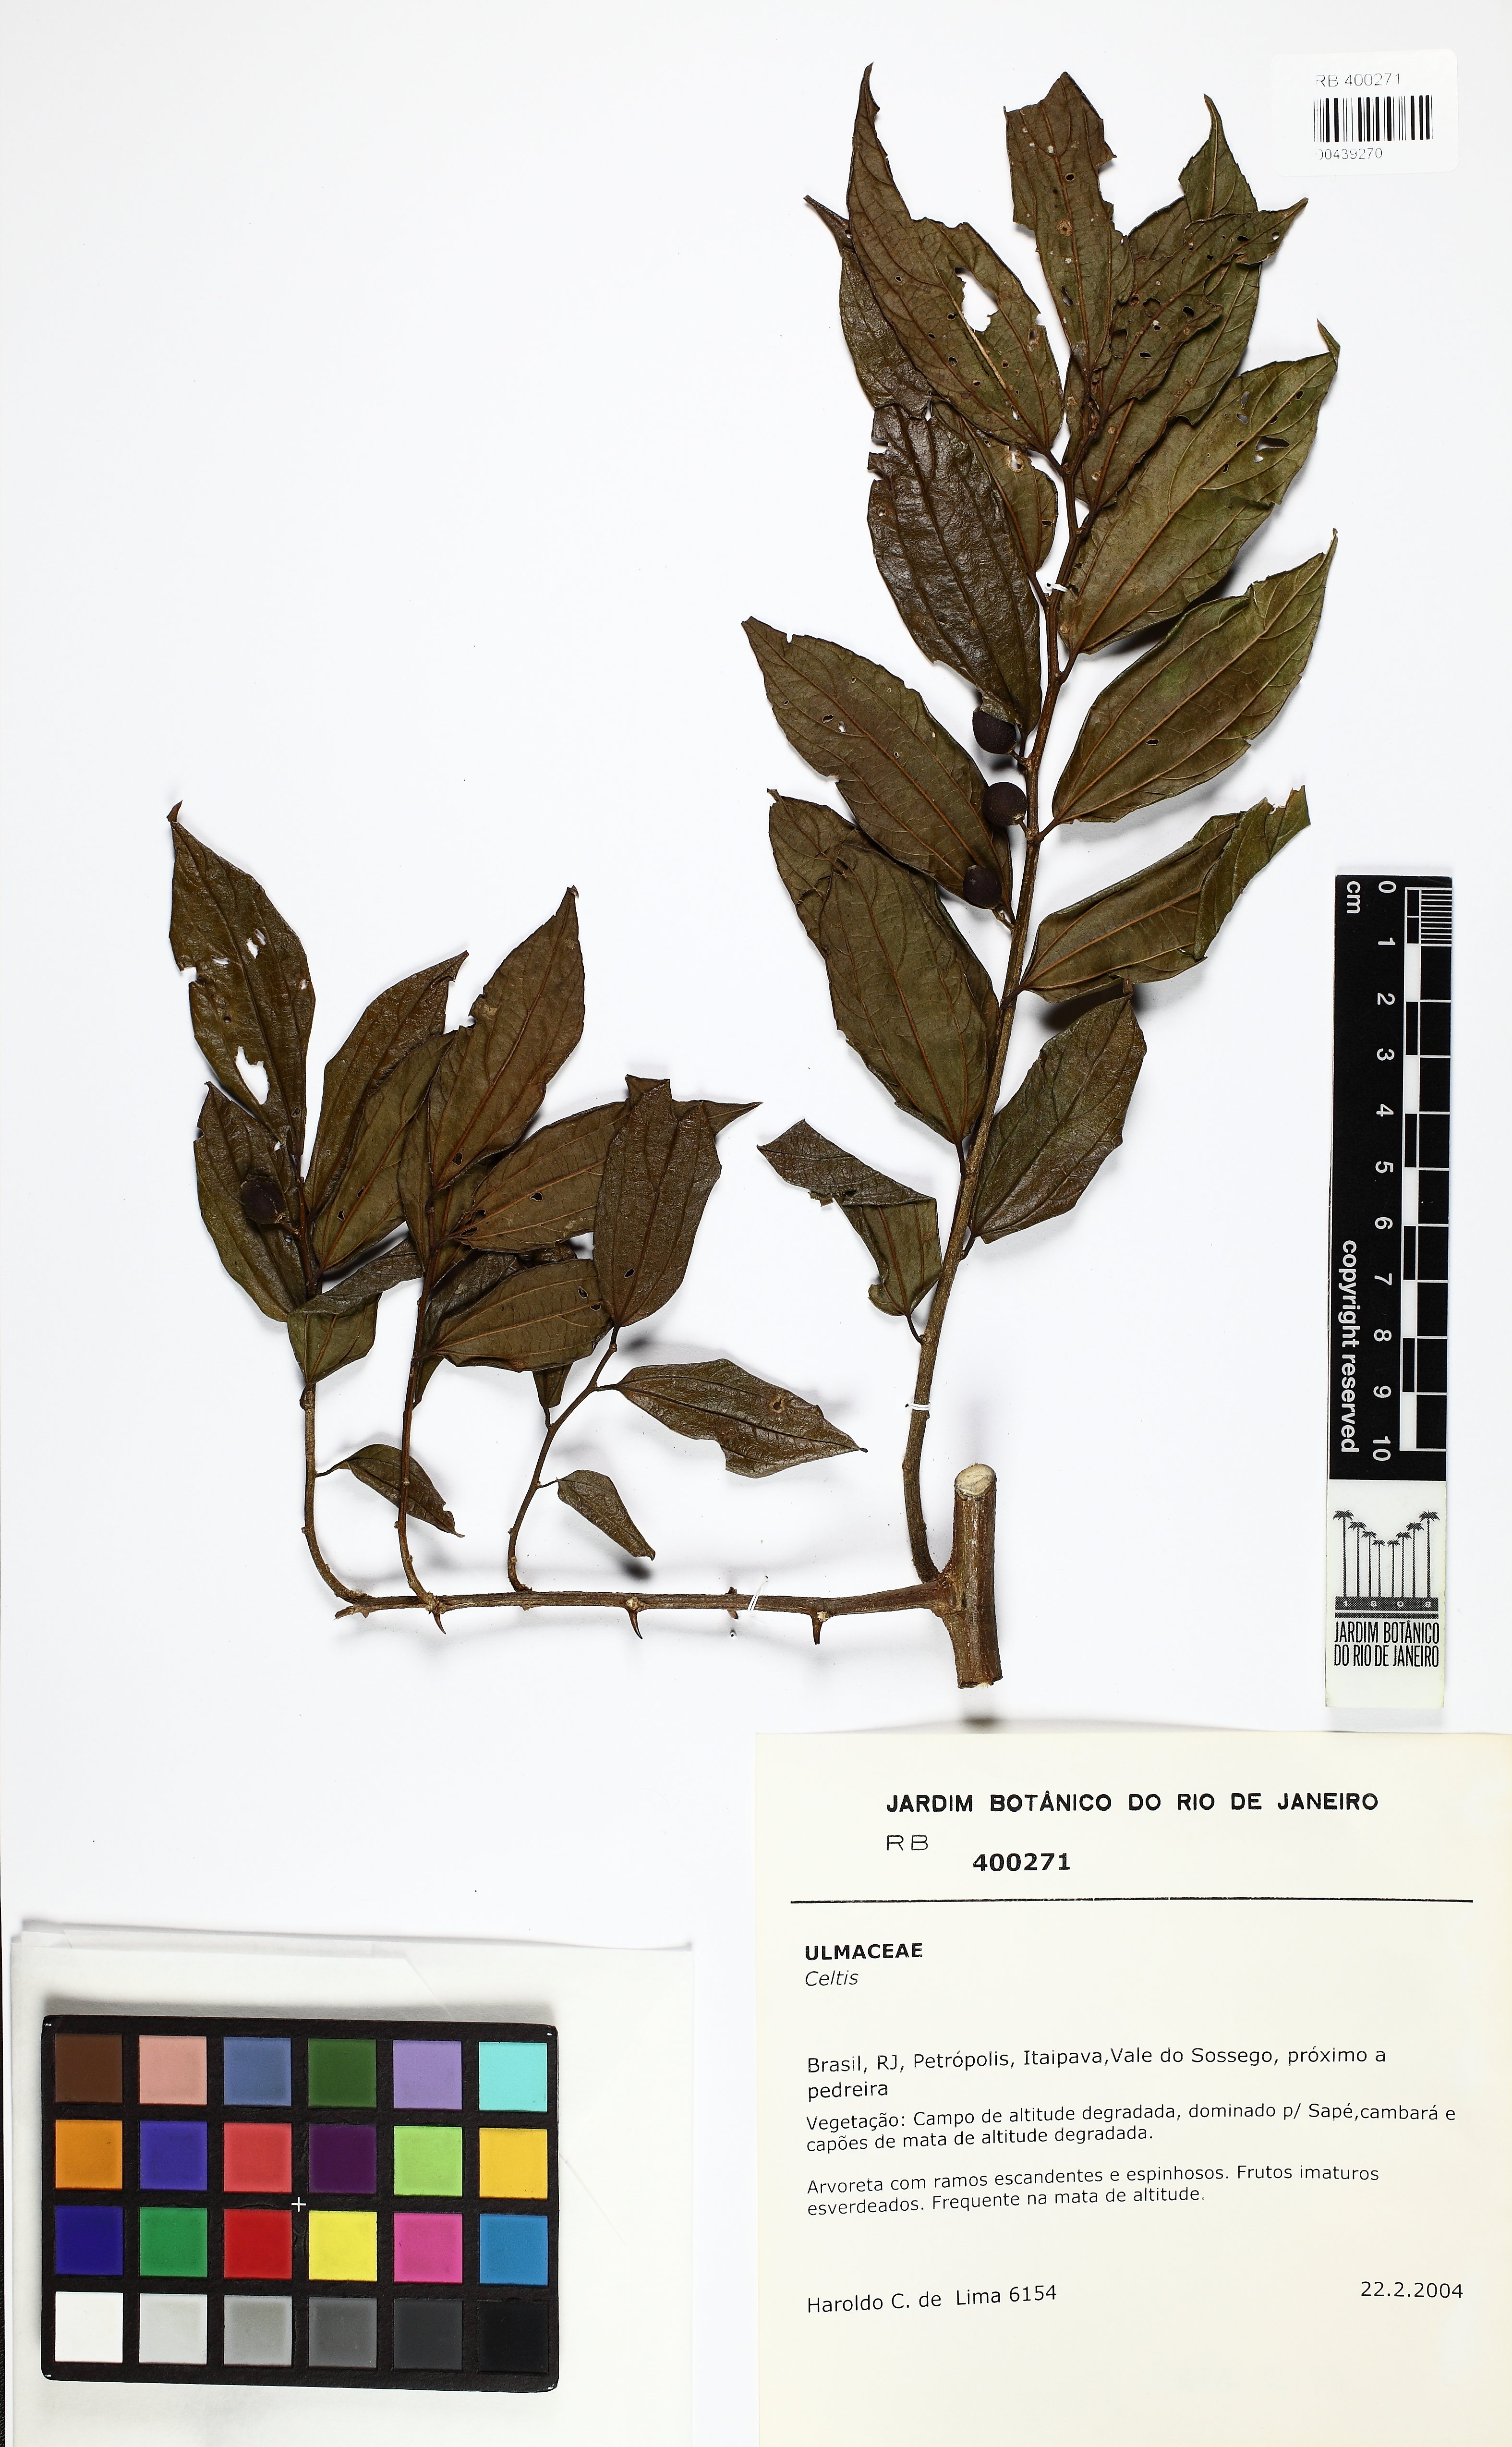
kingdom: Plantae
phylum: Tracheophyta
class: Magnoliopsida
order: Rosales
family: Cannabaceae
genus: Celtis
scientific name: Celtis iguanaea
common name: Iguana hackberry
